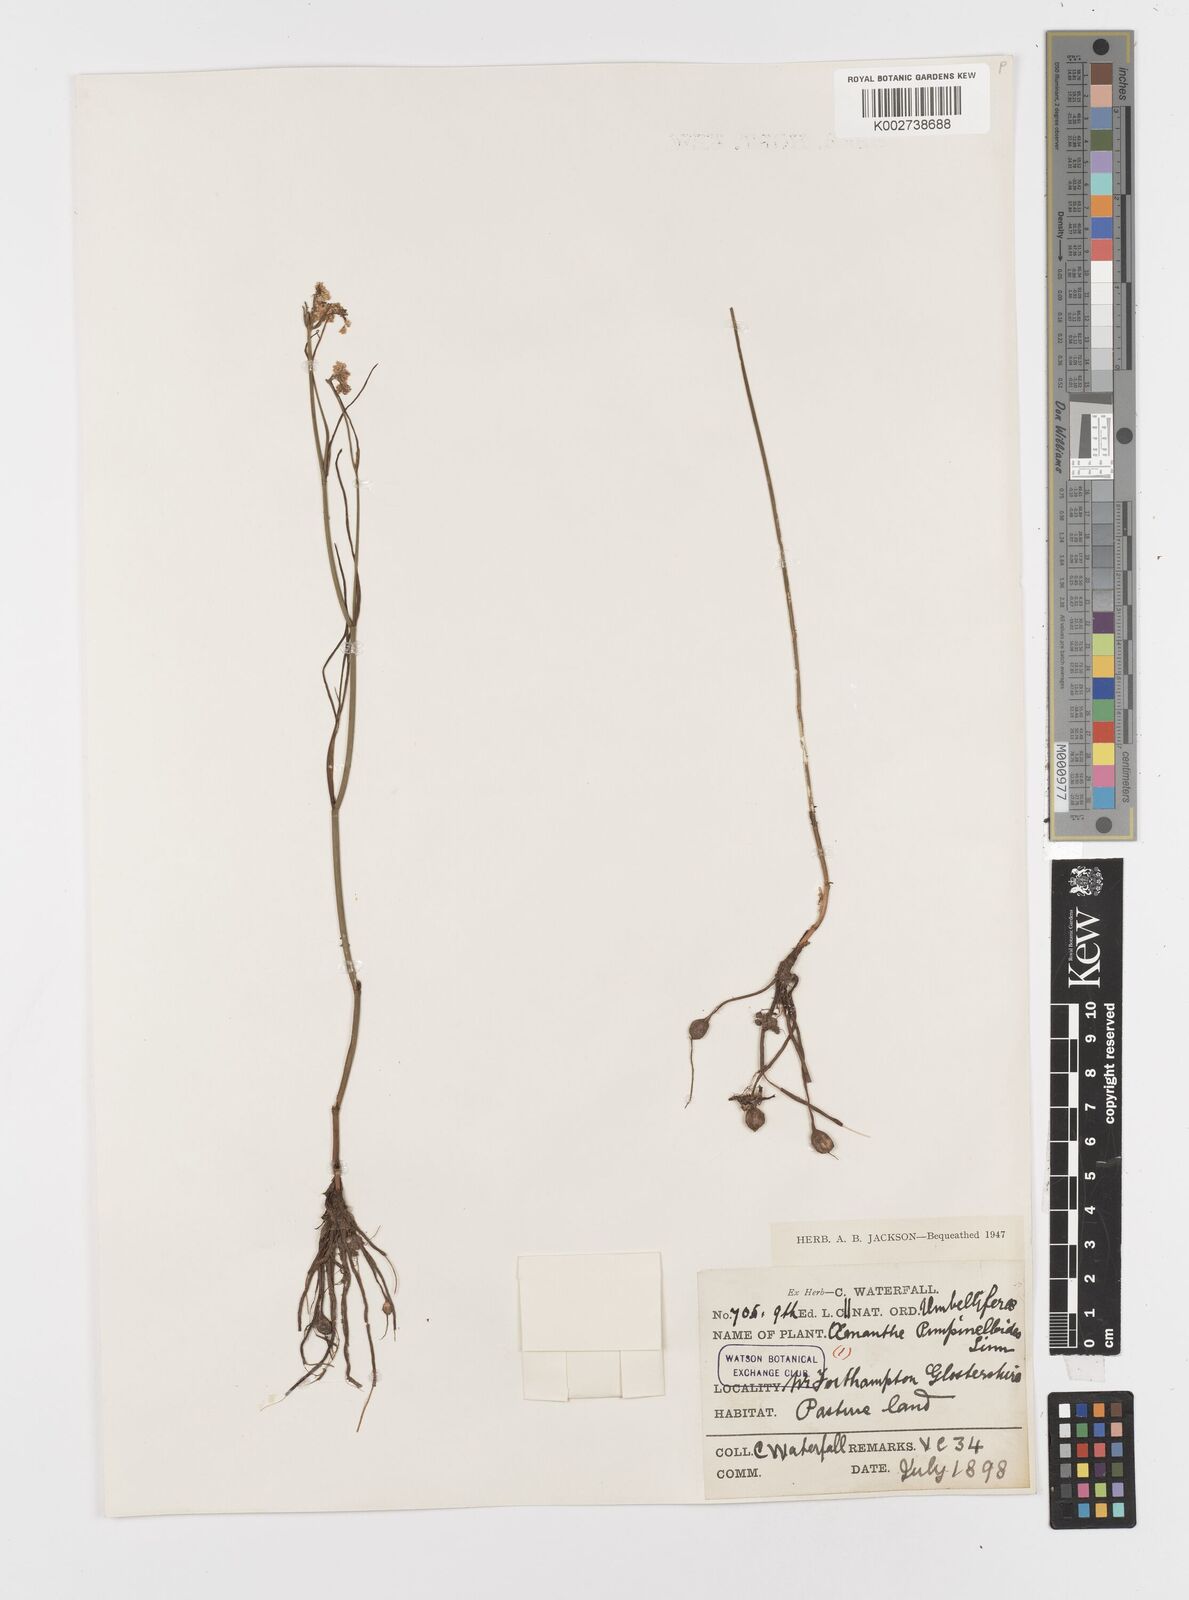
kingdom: Plantae
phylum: Tracheophyta
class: Magnoliopsida
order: Apiales
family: Apiaceae
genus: Oenanthe
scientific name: Oenanthe pimpinelloides
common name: Corky-fruited water-dropwort
